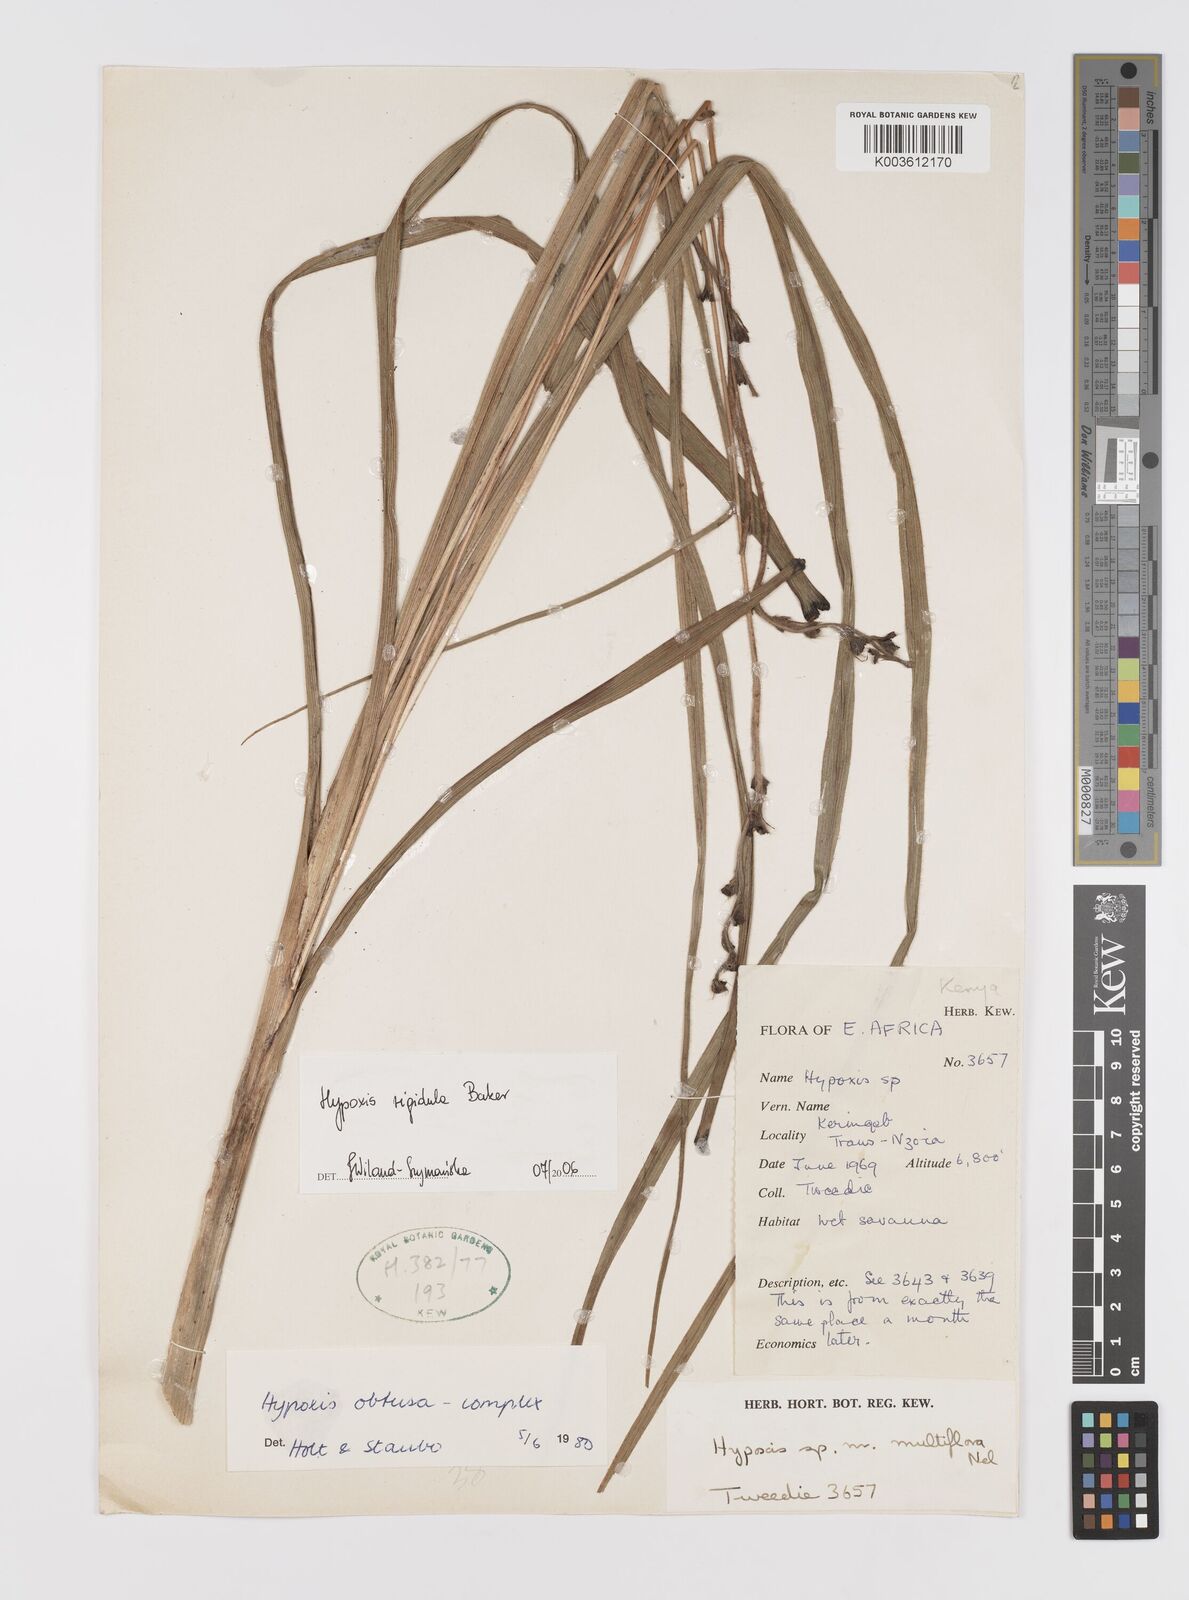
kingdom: Plantae
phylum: Tracheophyta
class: Liliopsida
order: Asparagales
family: Hypoxidaceae
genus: Hypoxis
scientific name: Hypoxis rigidula
